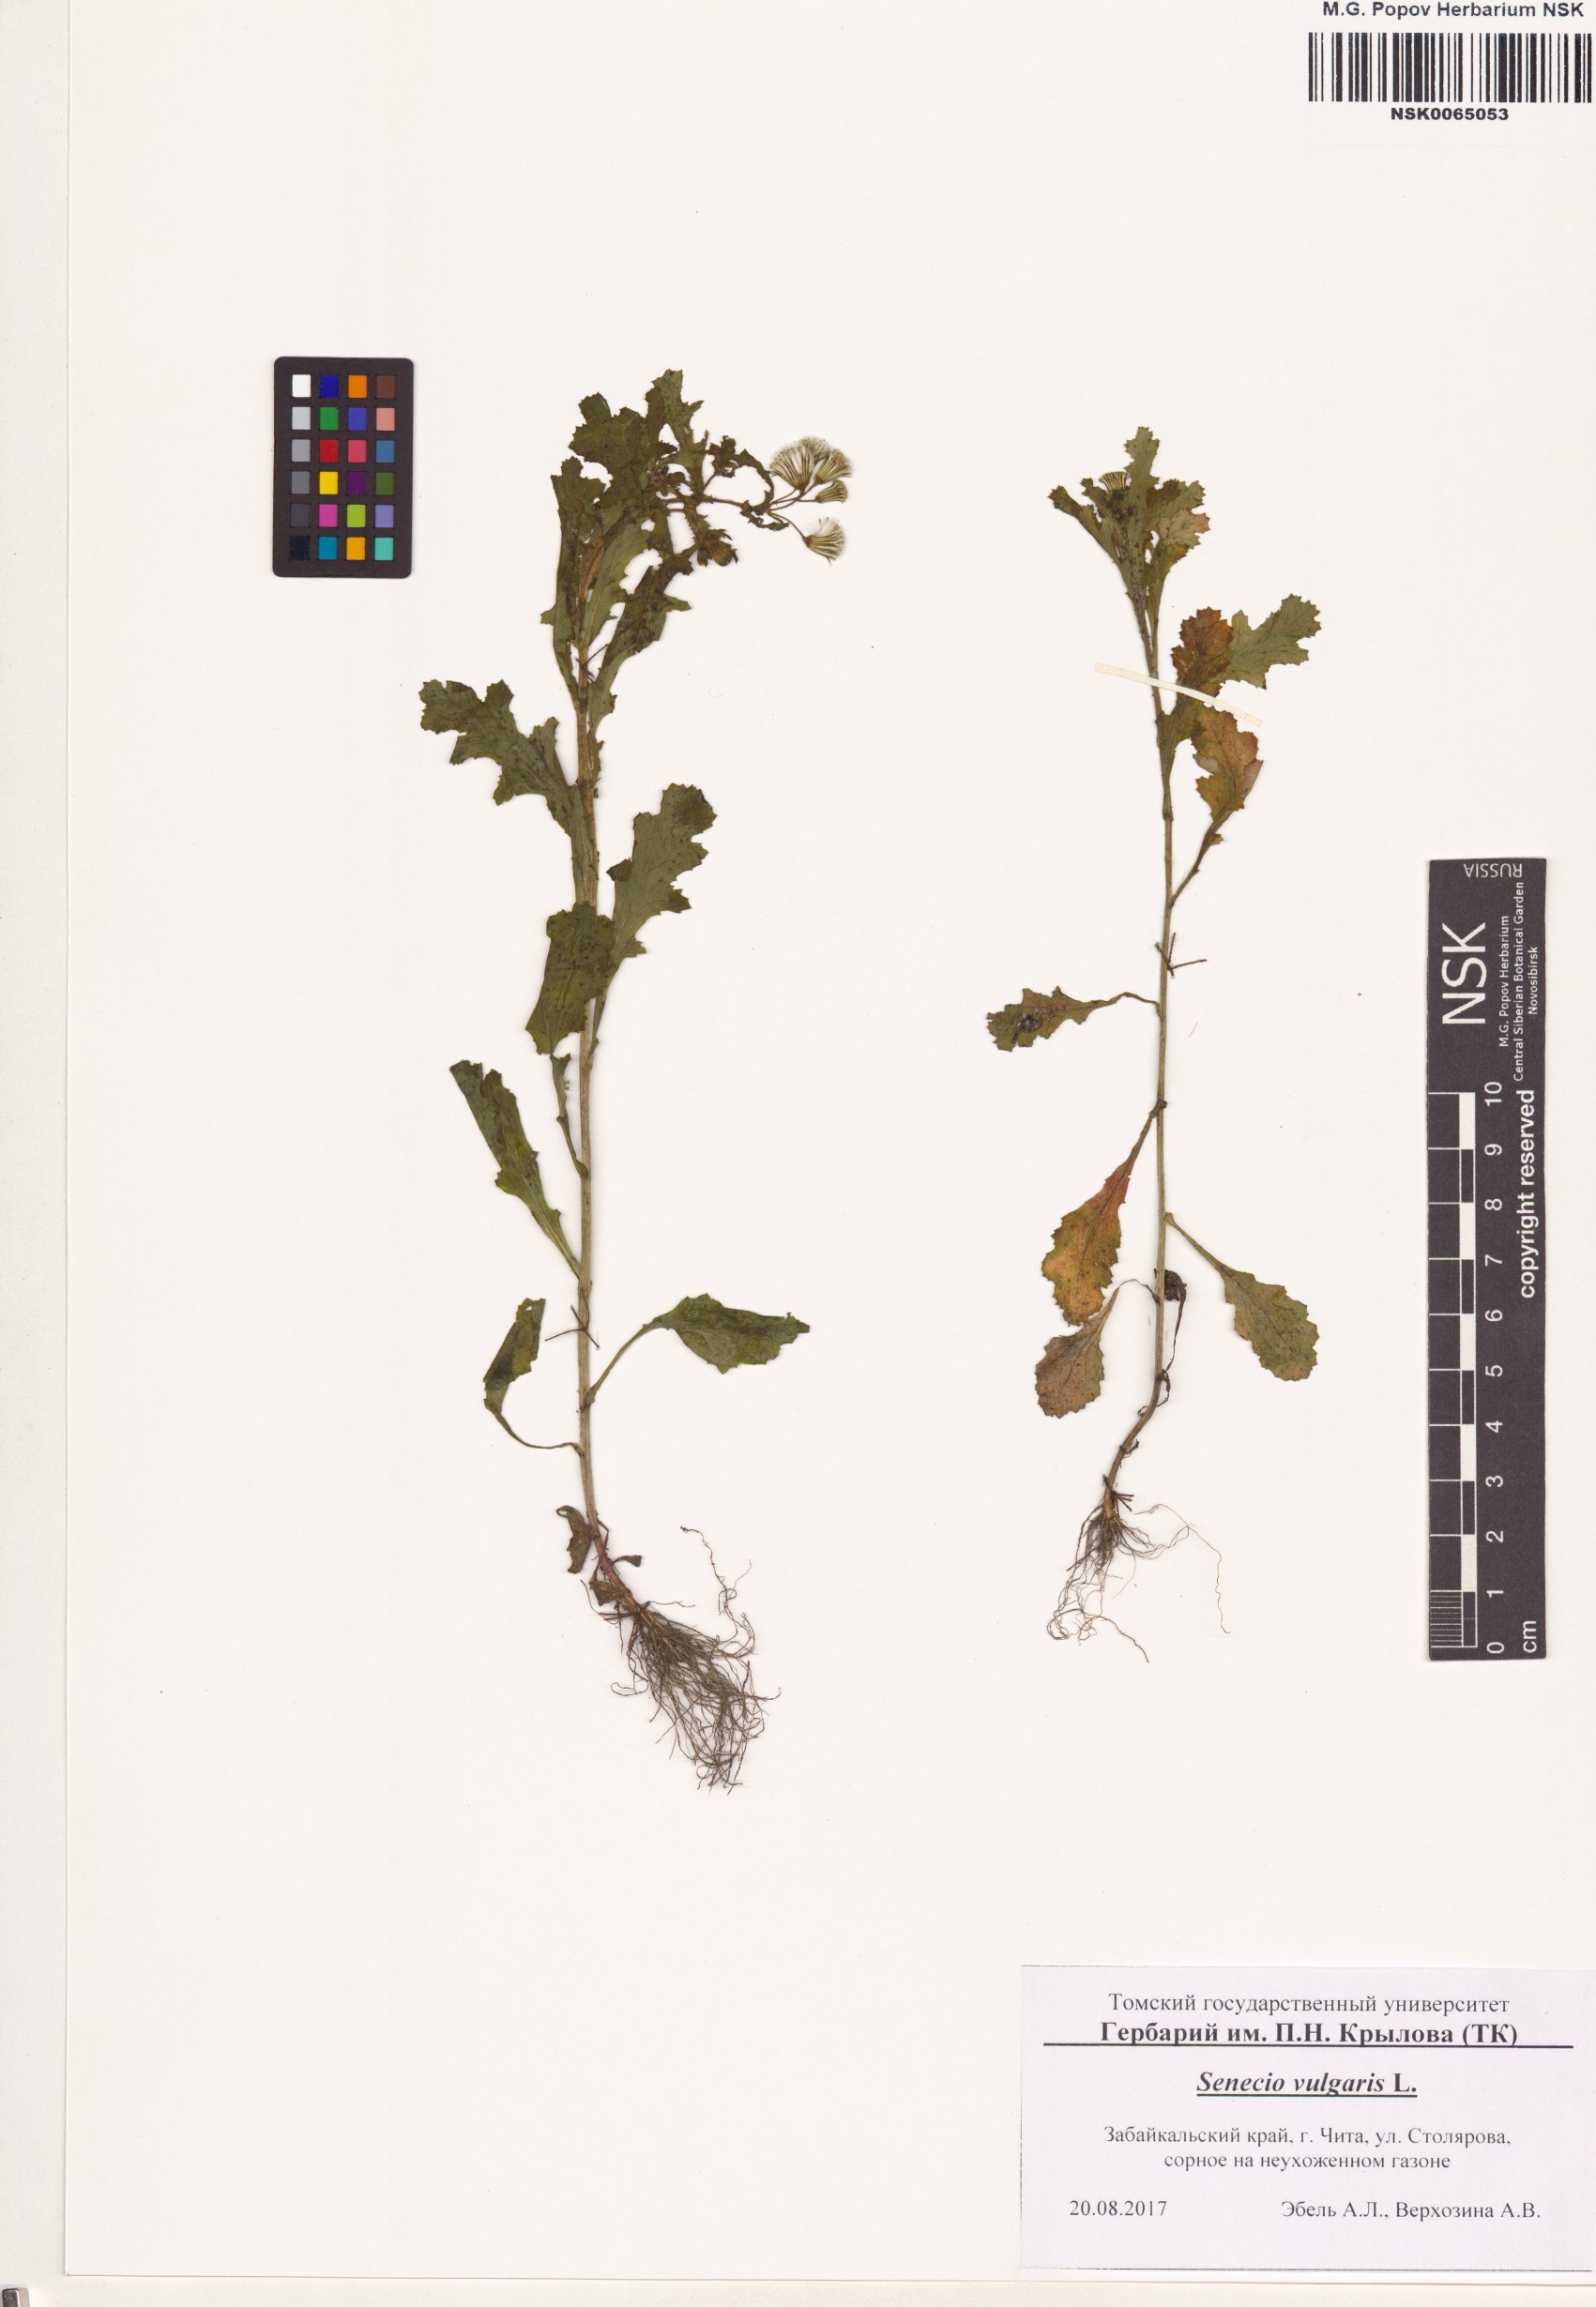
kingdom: Plantae
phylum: Tracheophyta
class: Magnoliopsida
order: Asterales
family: Asteraceae
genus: Senecio
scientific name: Senecio vulgaris
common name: Old-man-in-the-spring
